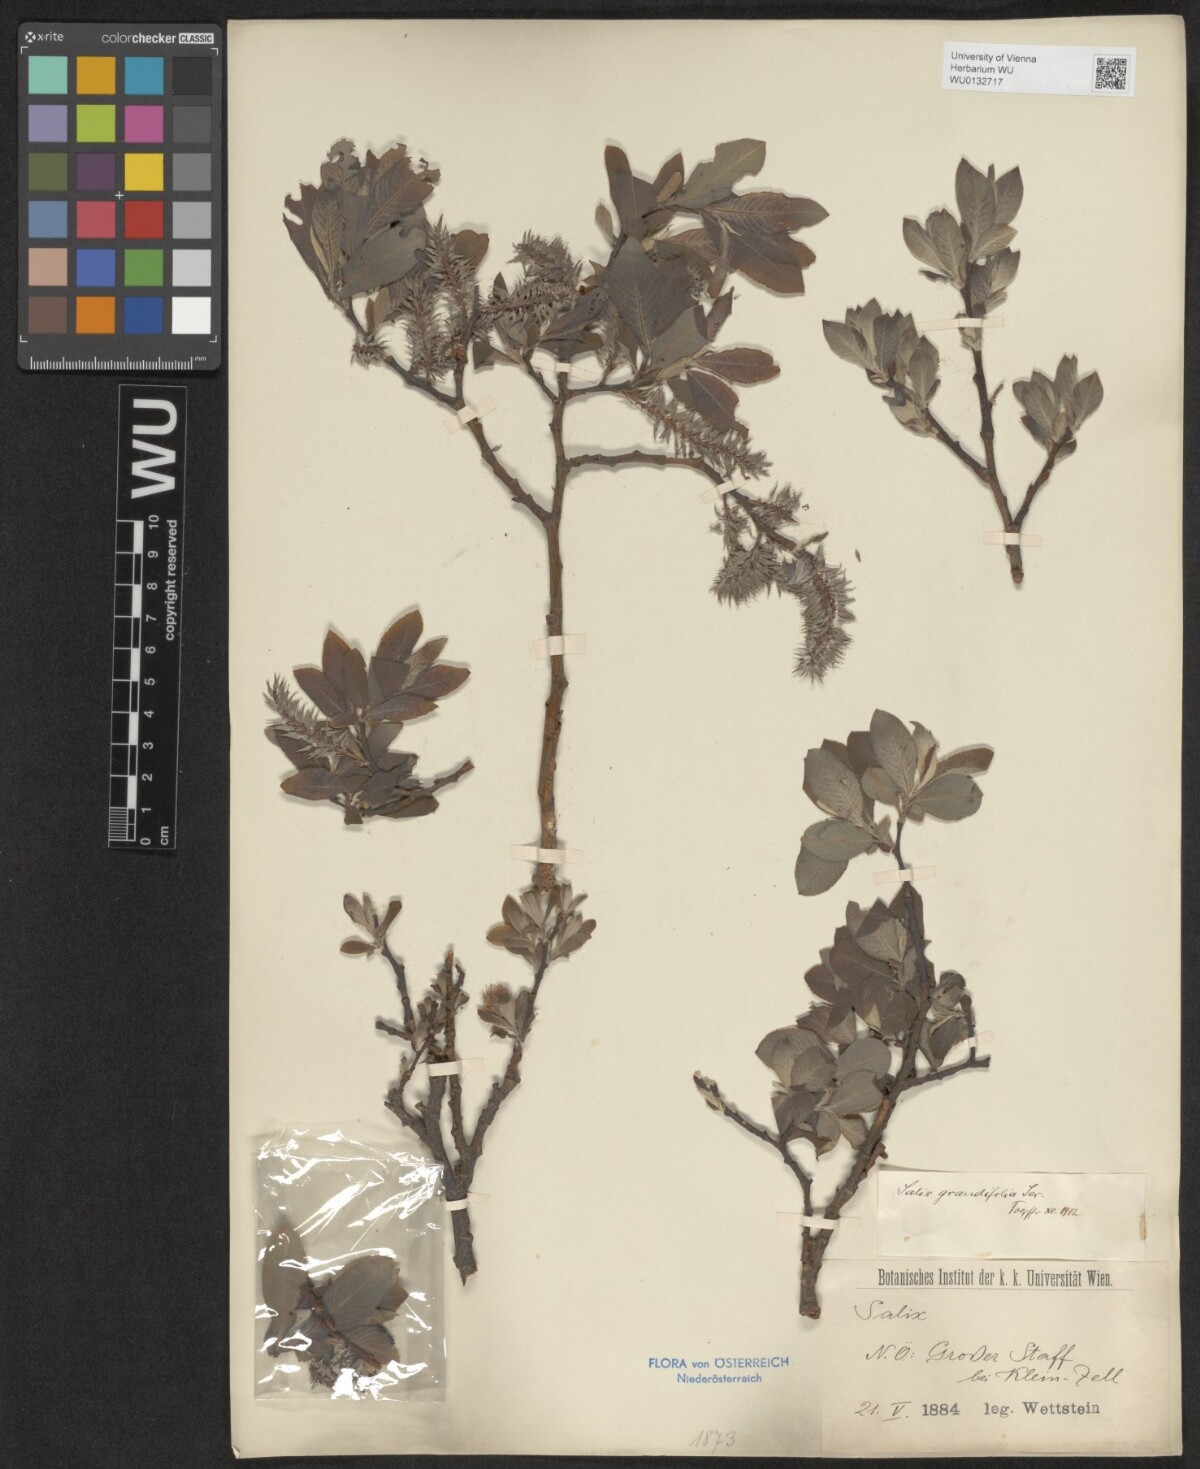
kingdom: Plantae
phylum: Tracheophyta
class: Magnoliopsida
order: Malpighiales
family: Salicaceae
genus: Salix
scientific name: Salix appendiculata
